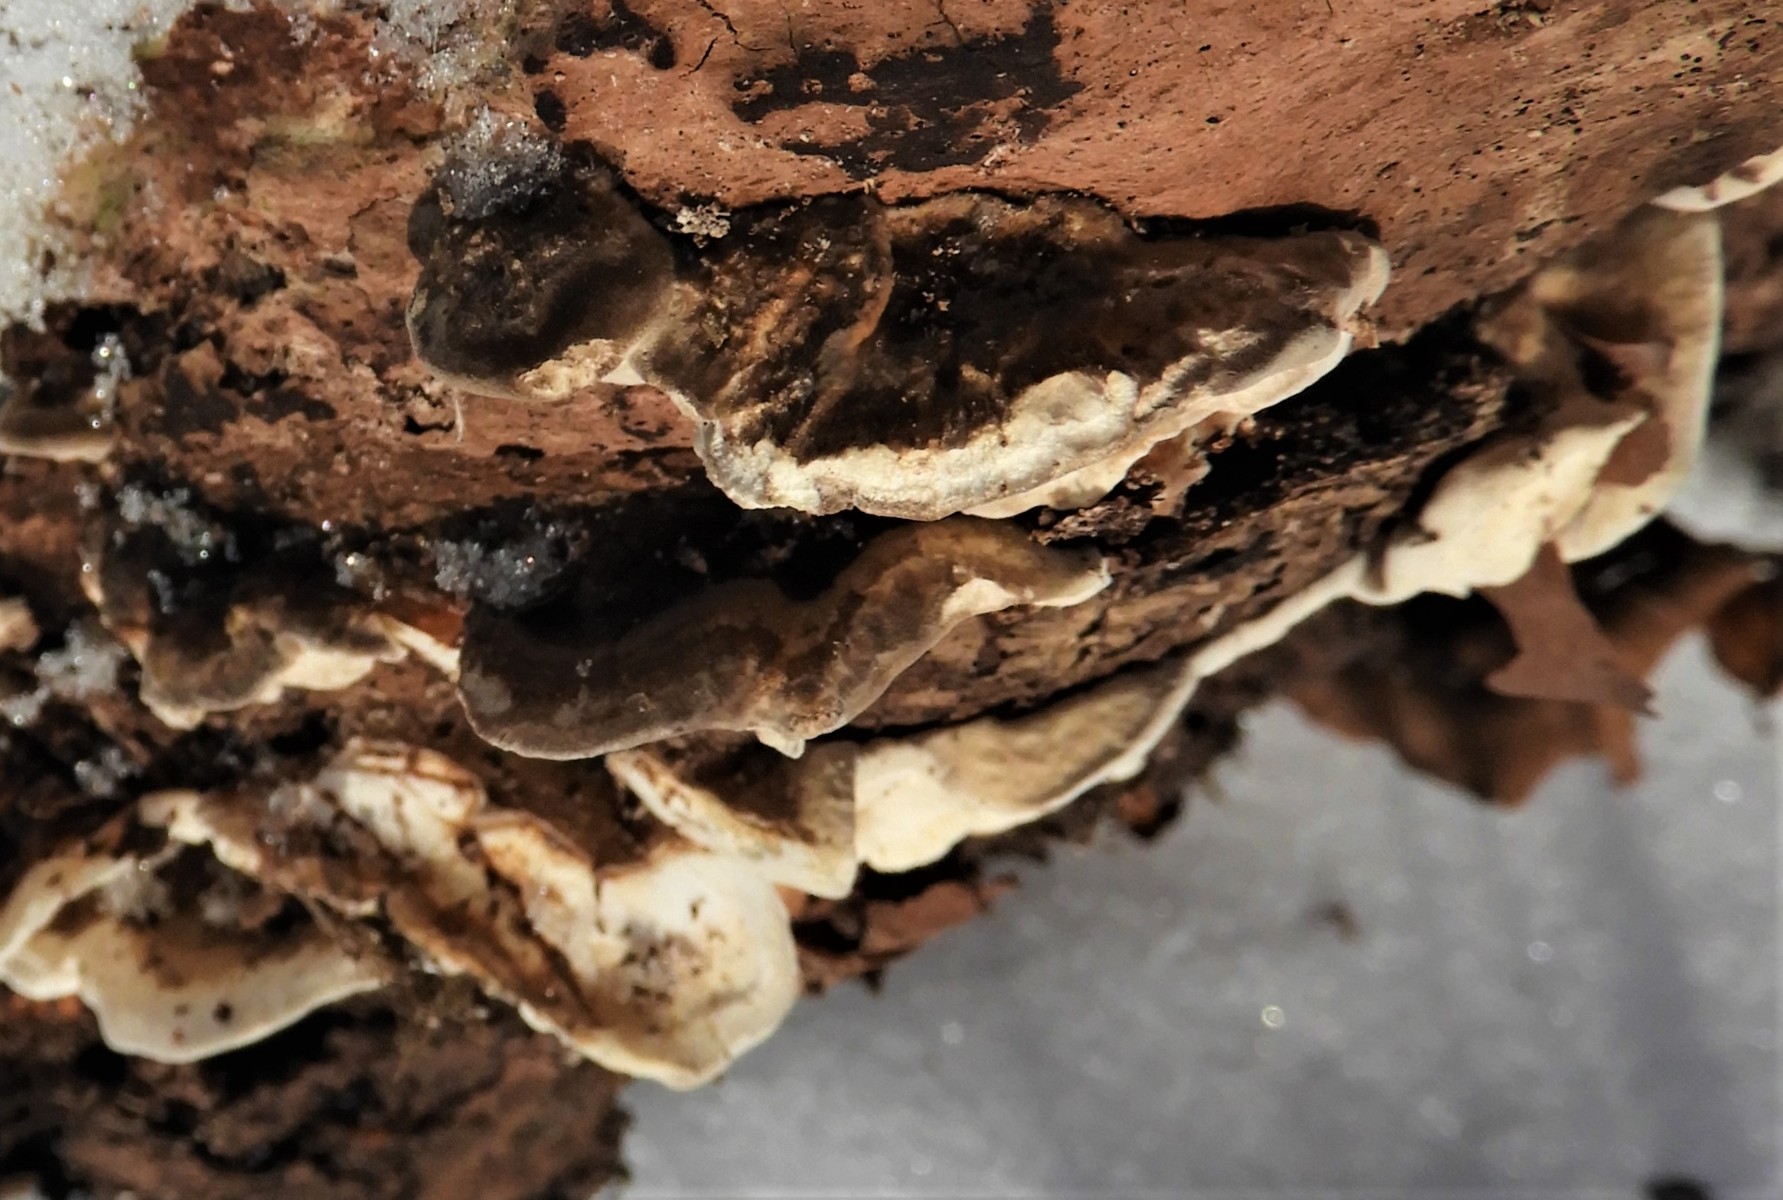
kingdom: Fungi
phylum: Basidiomycota
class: Agaricomycetes
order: Polyporales
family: Ischnodermataceae
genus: Ischnoderma
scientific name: Ischnoderma resinosum
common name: løv-tjæreporesvamp
